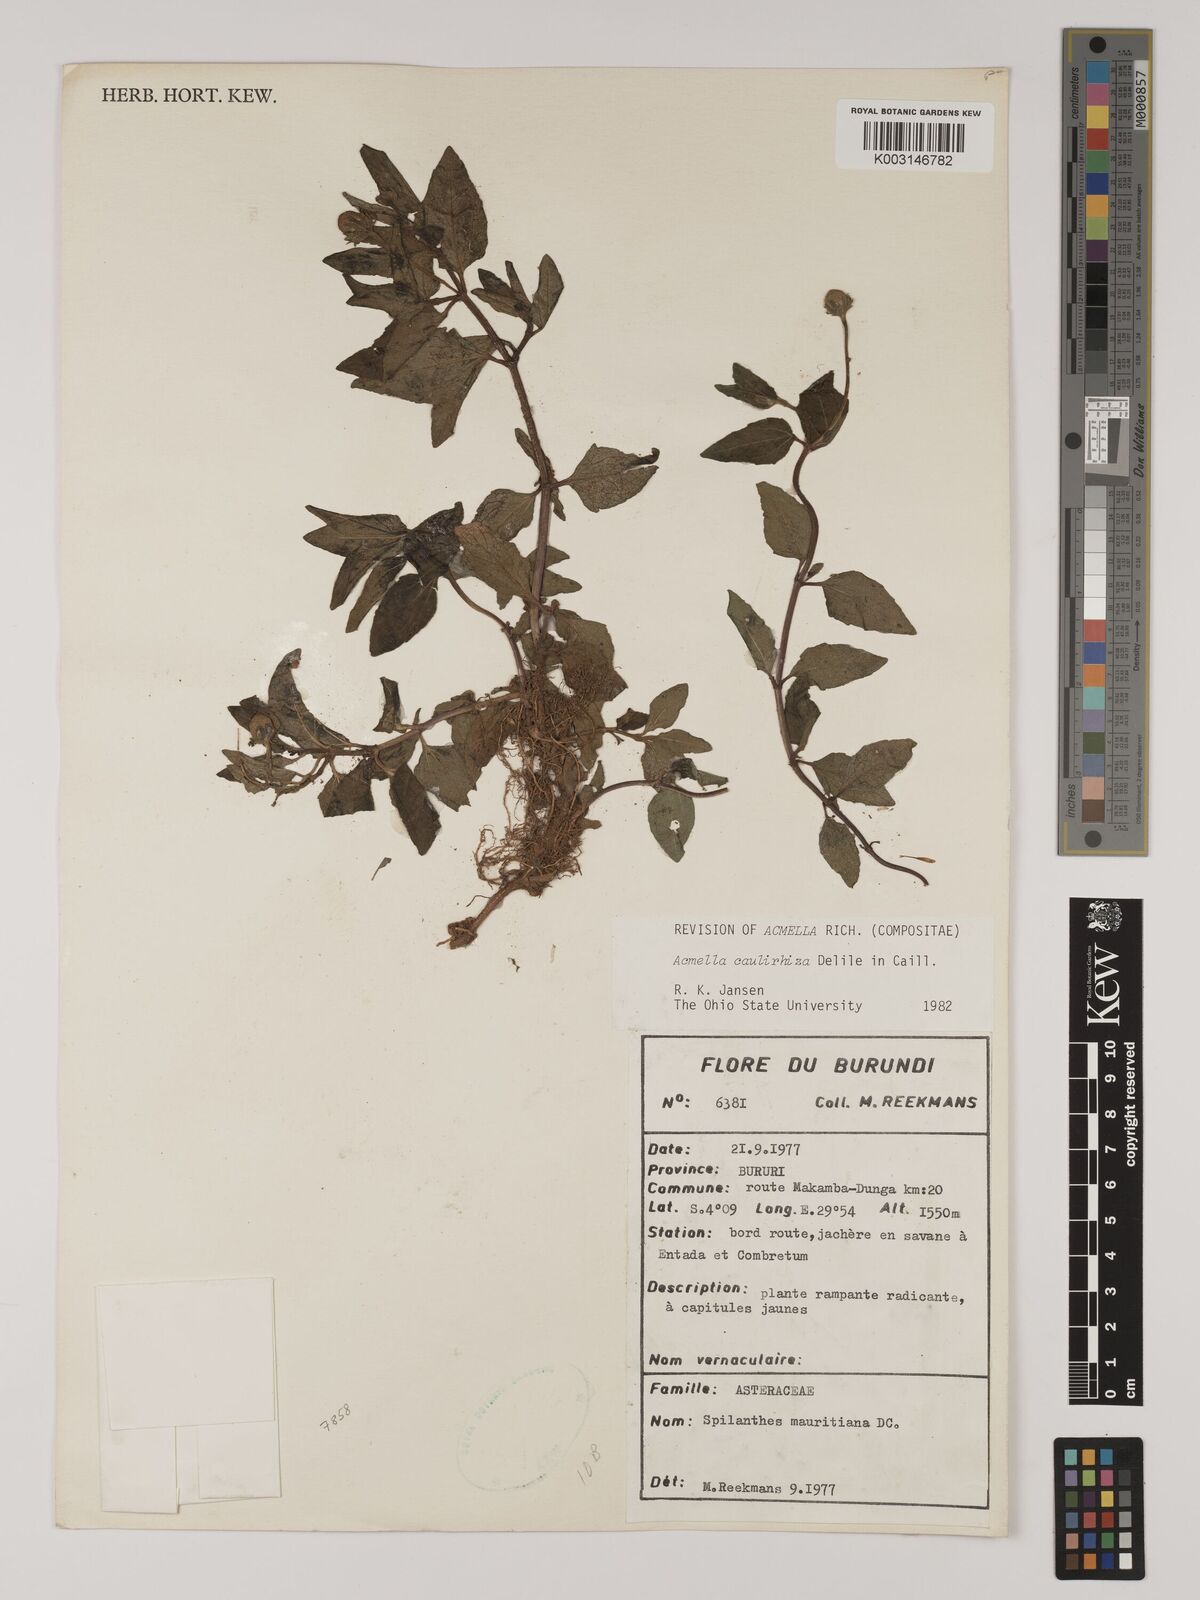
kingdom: Plantae
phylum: Tracheophyta
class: Magnoliopsida
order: Asterales
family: Asteraceae
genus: Acmella
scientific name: Acmella caulirhiza
